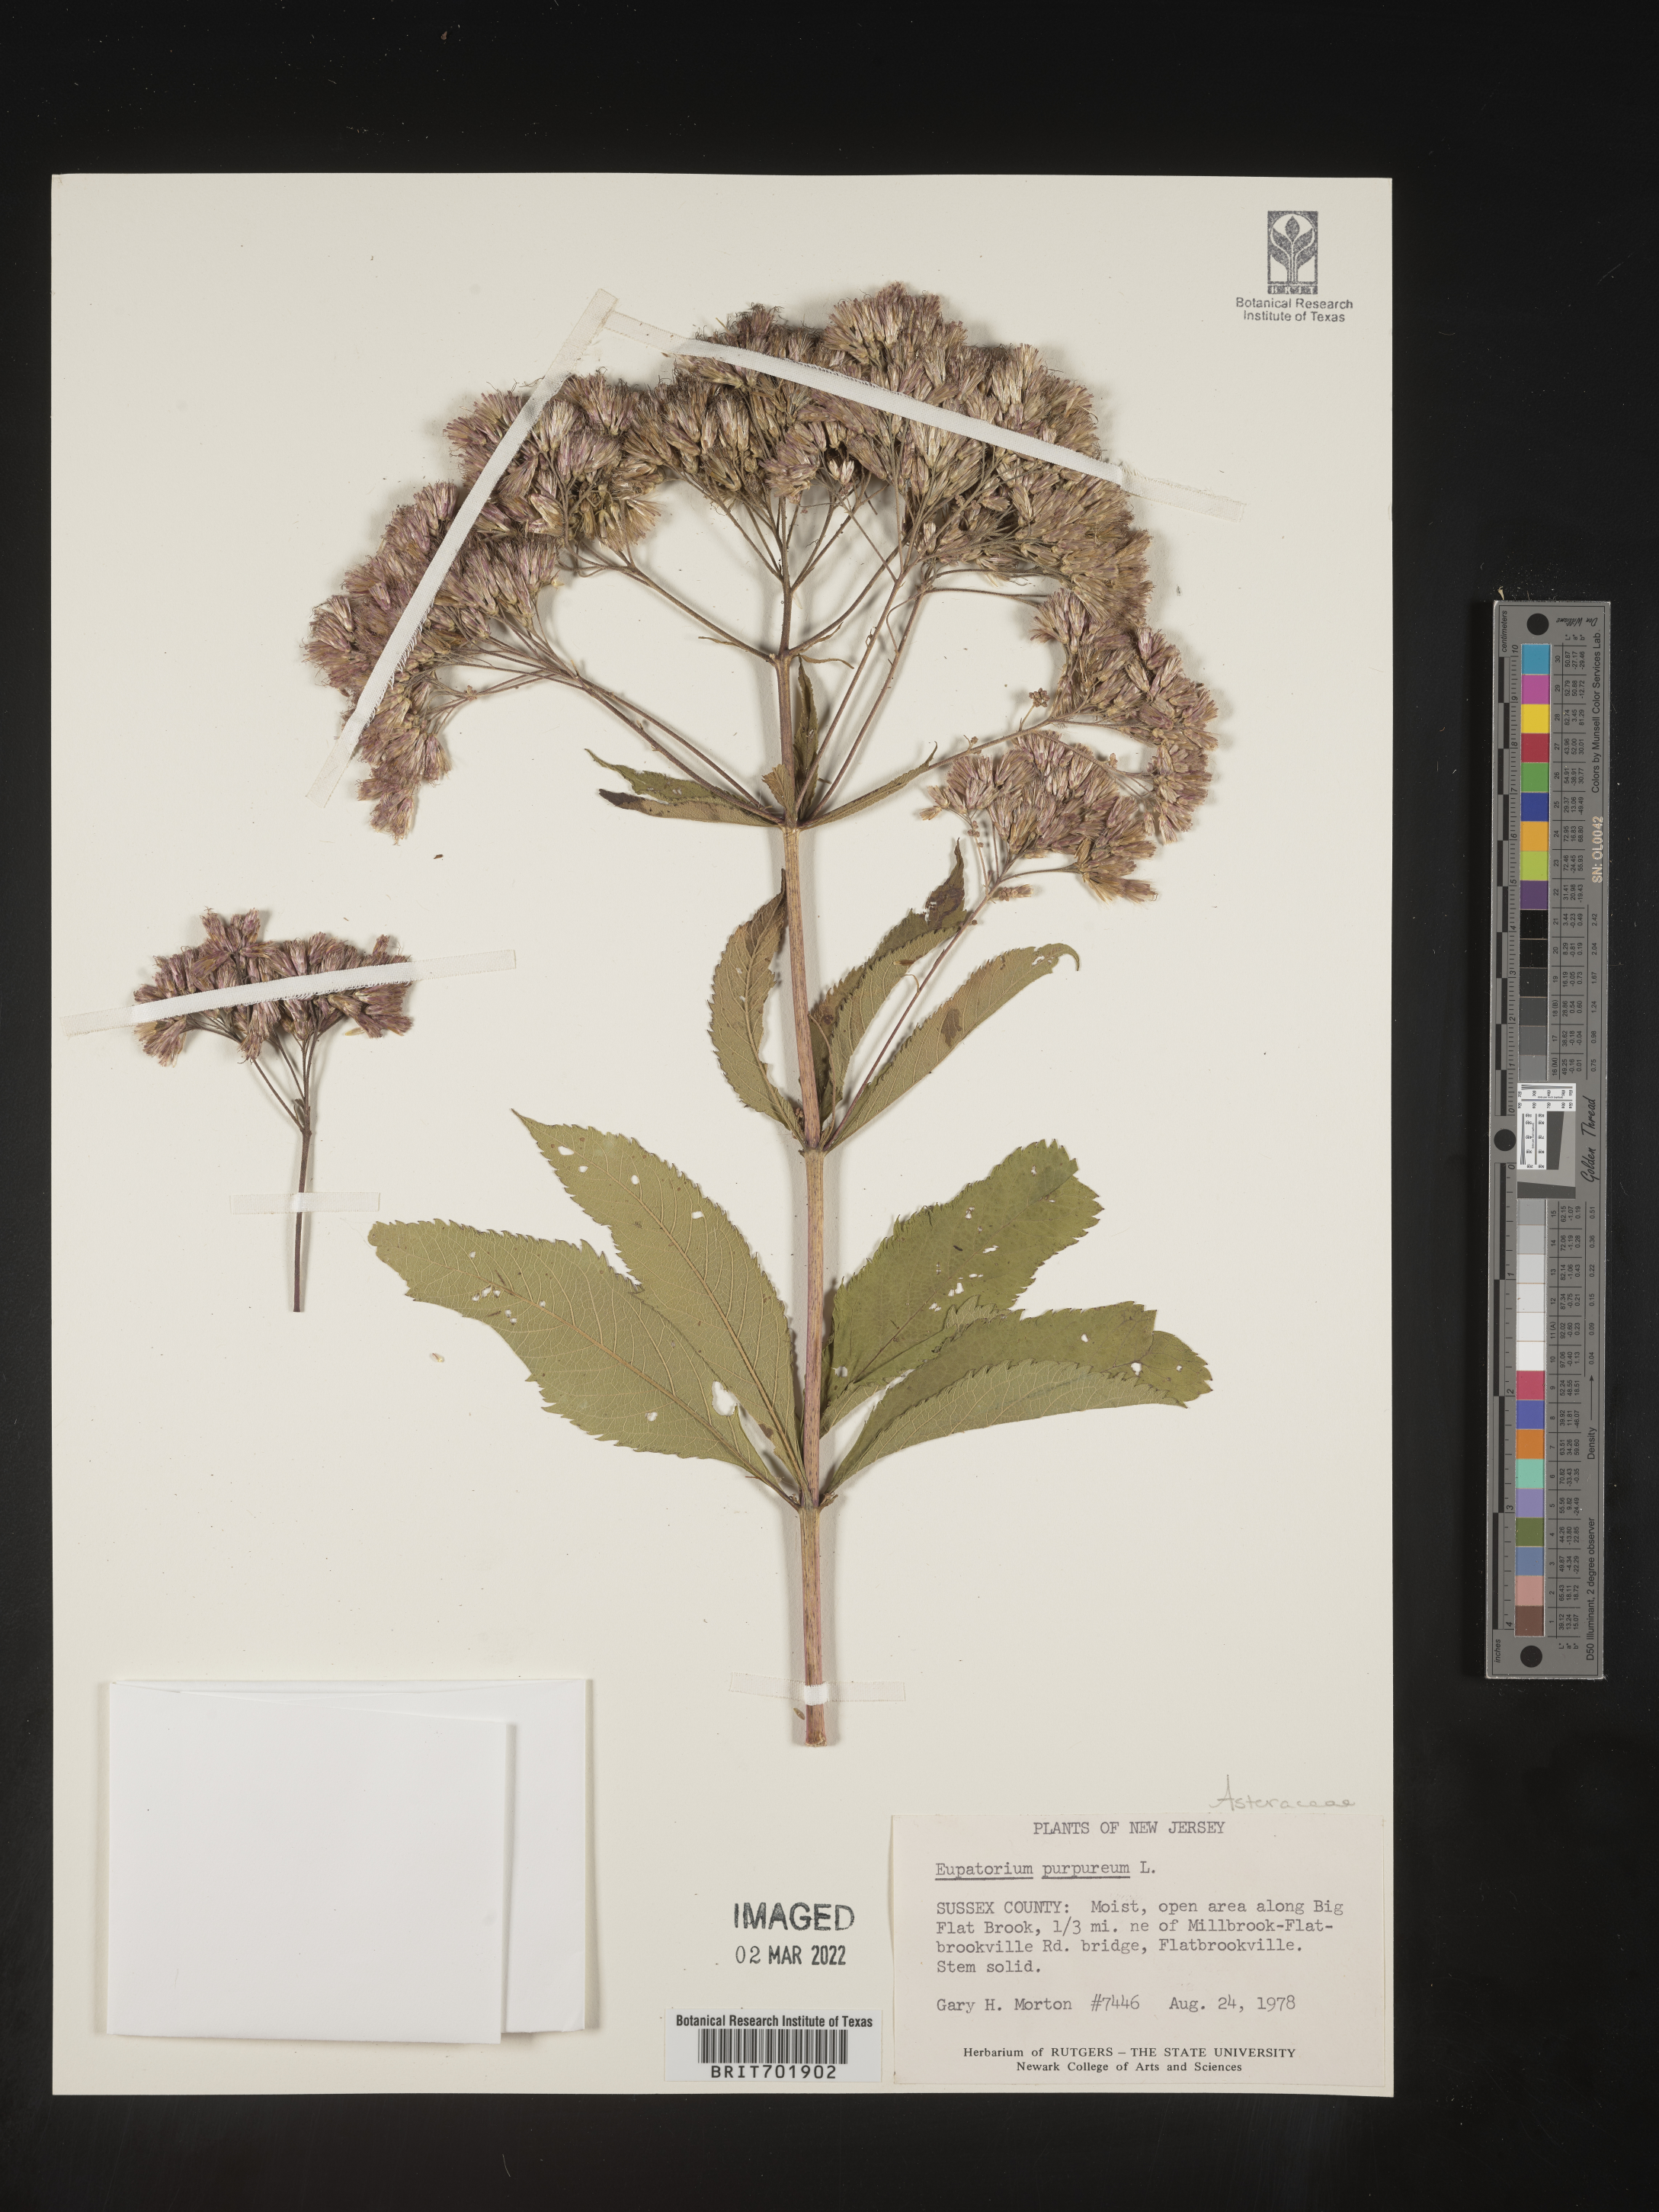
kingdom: Plantae
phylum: Tracheophyta
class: Magnoliopsida
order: Asterales
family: Asteraceae
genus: Eupatorium
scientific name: Eupatorium quaternum
